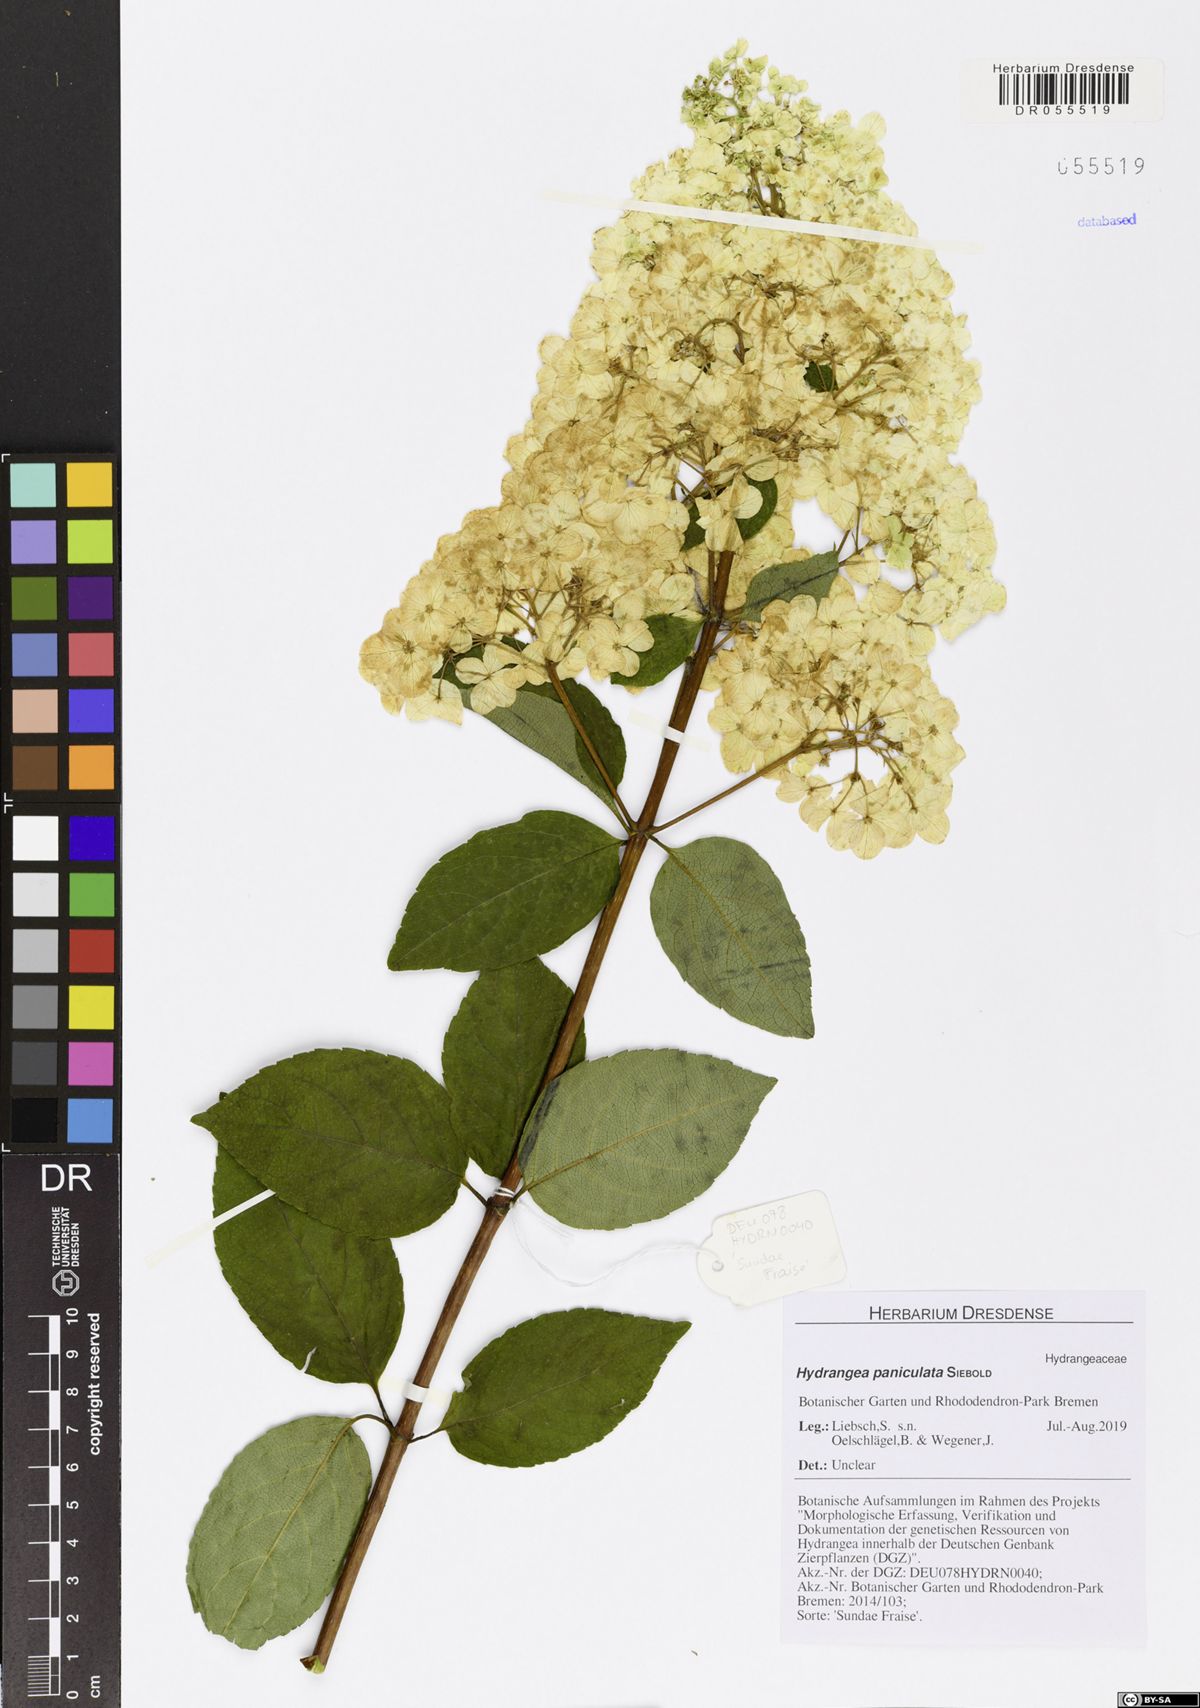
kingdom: Plantae
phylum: Tracheophyta
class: Magnoliopsida
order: Cornales
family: Hydrangeaceae
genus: Hydrangea
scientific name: Hydrangea paniculata
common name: Panicled hydrangea
